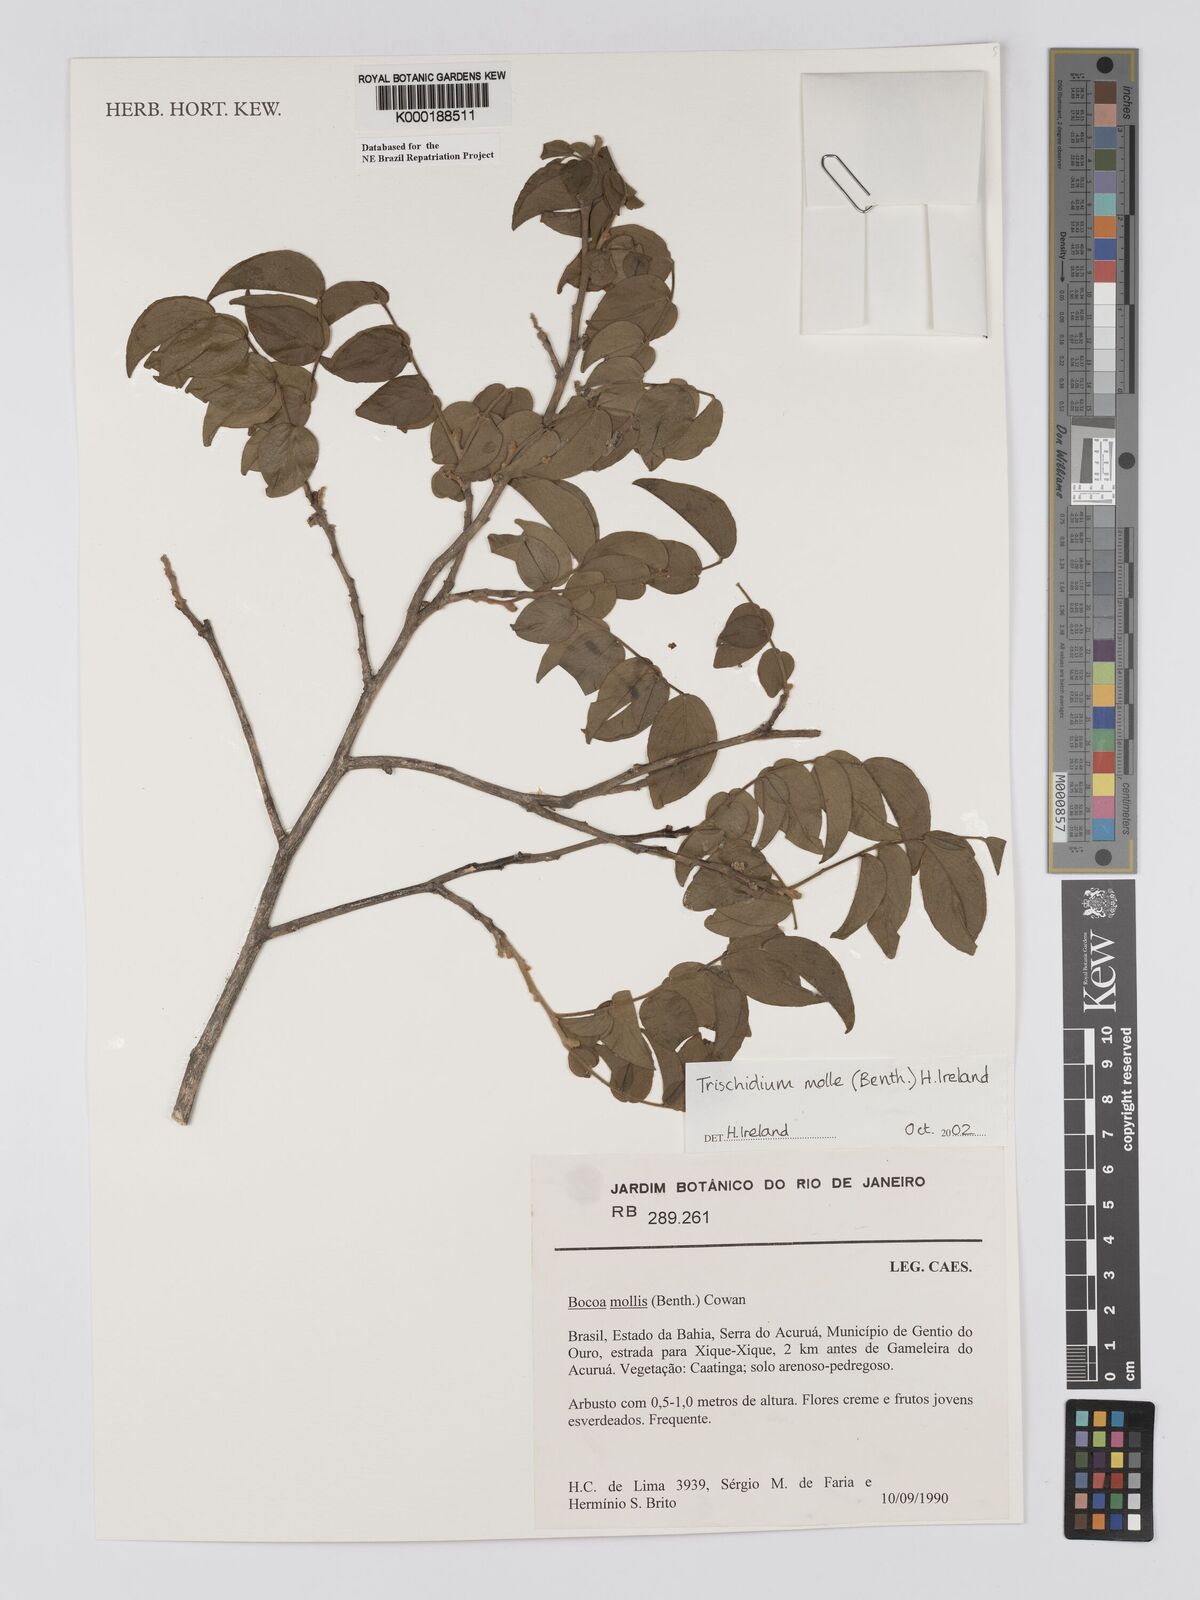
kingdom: Plantae
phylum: Tracheophyta
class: Magnoliopsida
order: Fabales
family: Fabaceae
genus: Trischidium
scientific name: Trischidium
